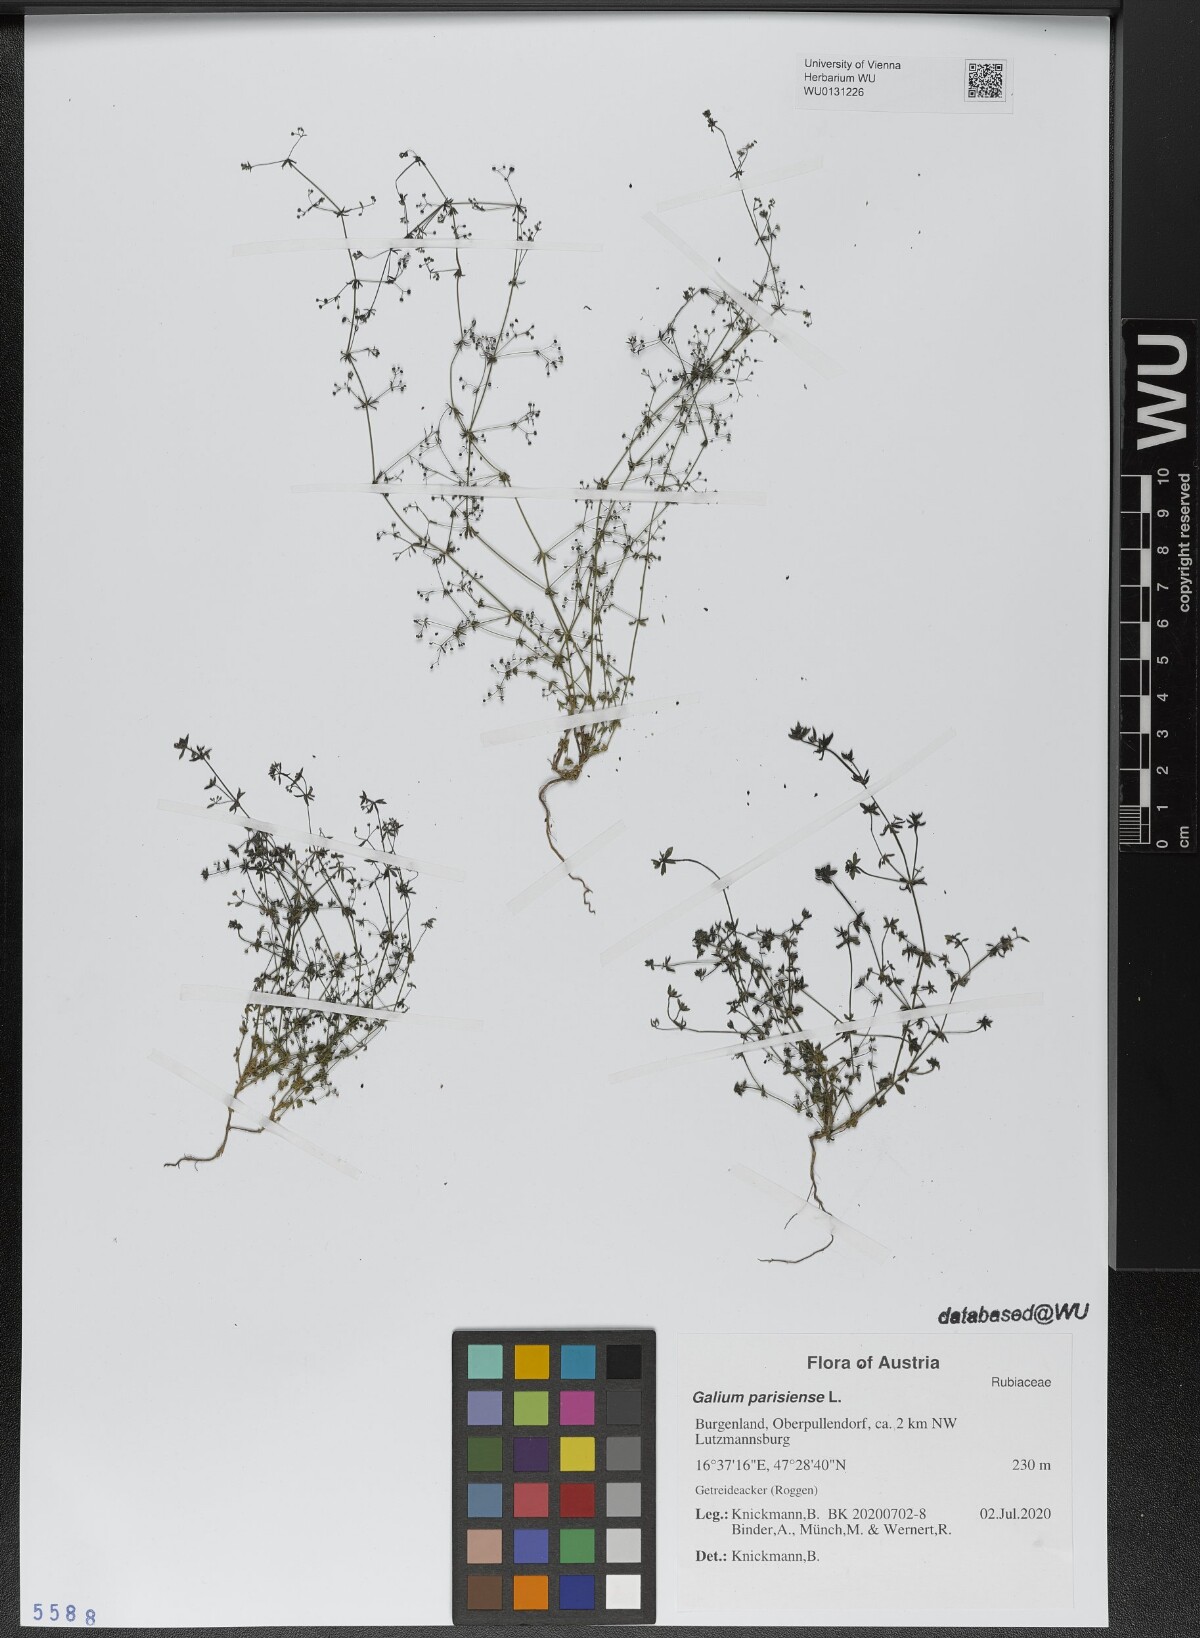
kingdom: Plantae
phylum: Tracheophyta
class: Magnoliopsida
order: Gentianales
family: Rubiaceae
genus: Galium
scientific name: Galium parisiense
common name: Wall bedstraw
